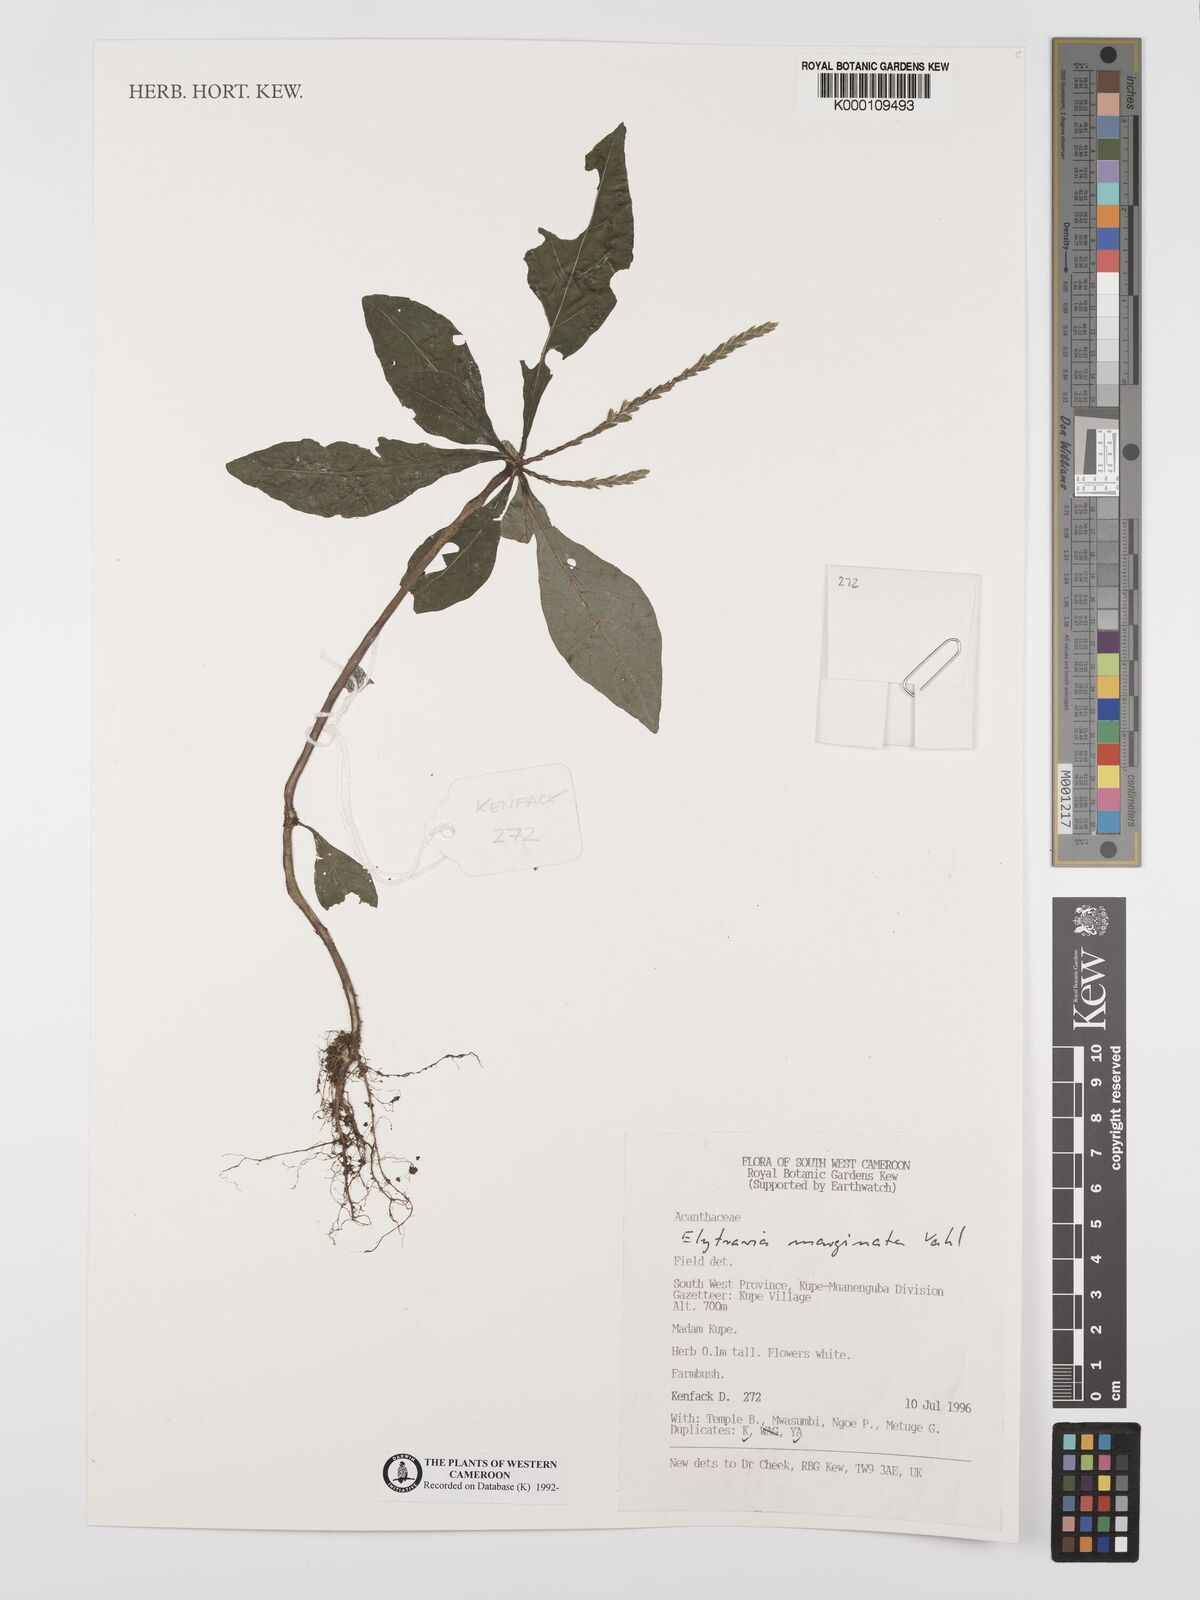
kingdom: Plantae
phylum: Tracheophyta
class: Magnoliopsida
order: Lamiales
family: Acanthaceae
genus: Elytraria
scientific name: Elytraria marginata
